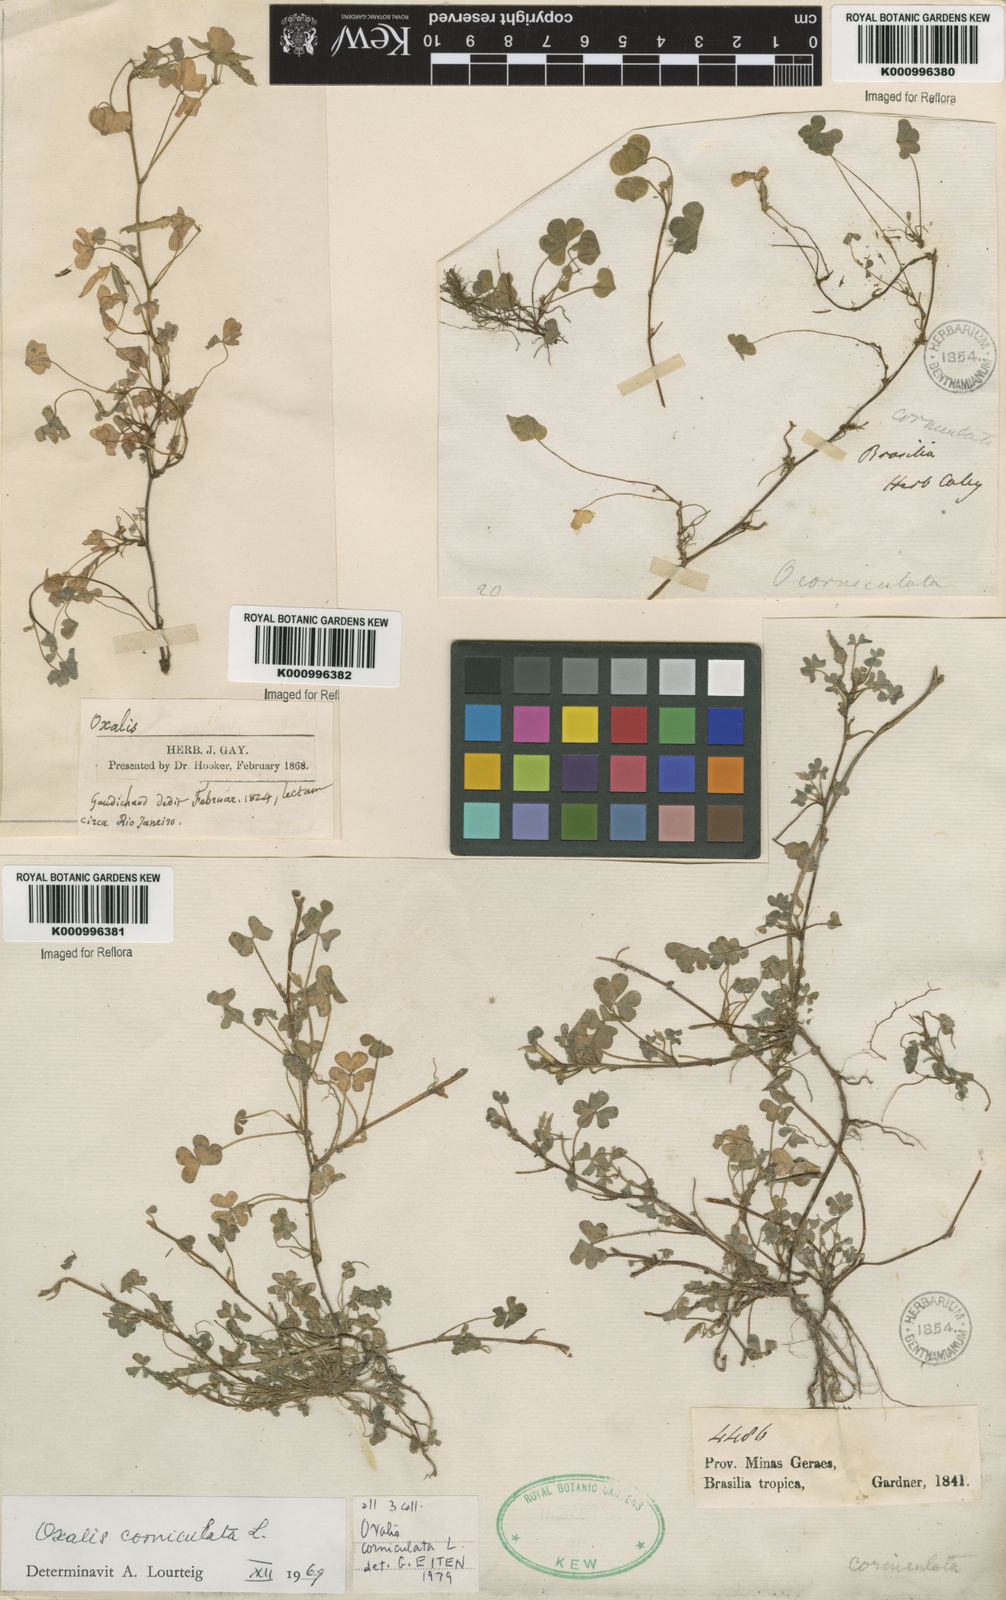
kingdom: Plantae
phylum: Tracheophyta
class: Magnoliopsida
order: Oxalidales
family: Oxalidaceae
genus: Oxalis
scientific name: Oxalis corniculata
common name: Procumbent yellow-sorrel
